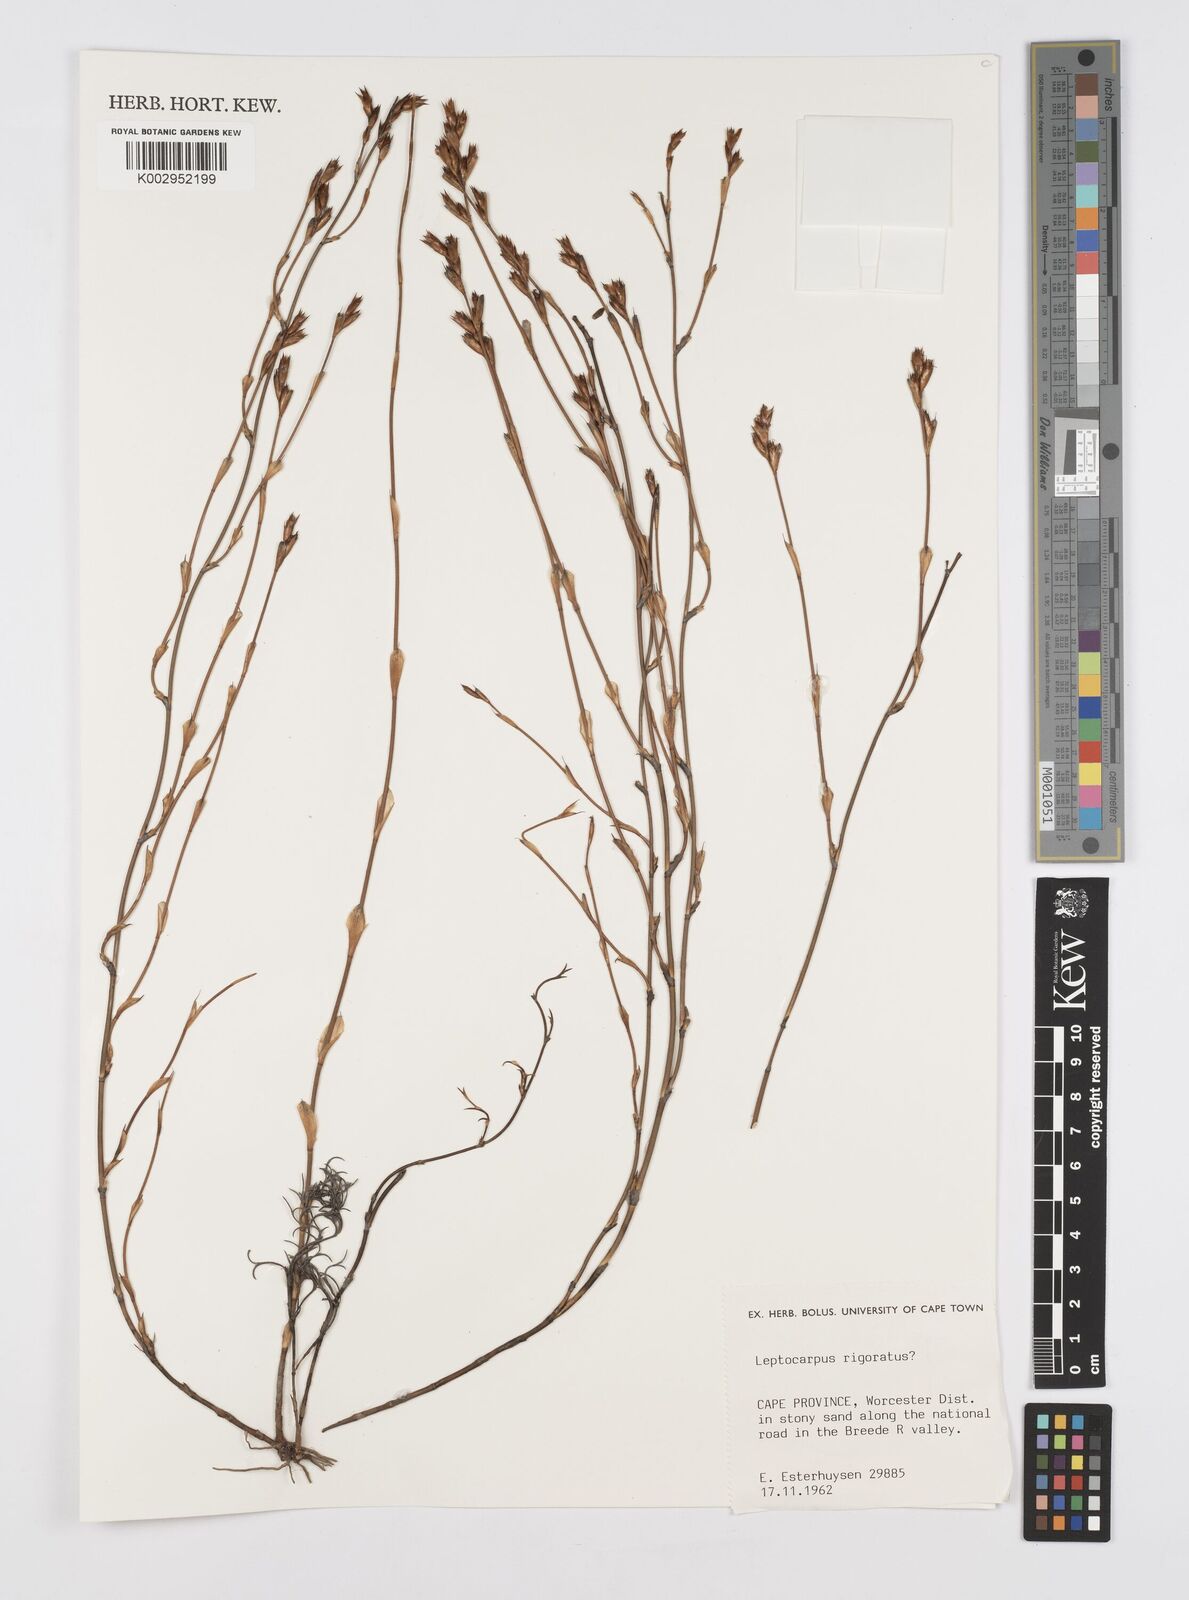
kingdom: Plantae
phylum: Tracheophyta
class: Liliopsida
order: Poales
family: Restionaceae
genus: Restio
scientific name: Restio rigoratus
